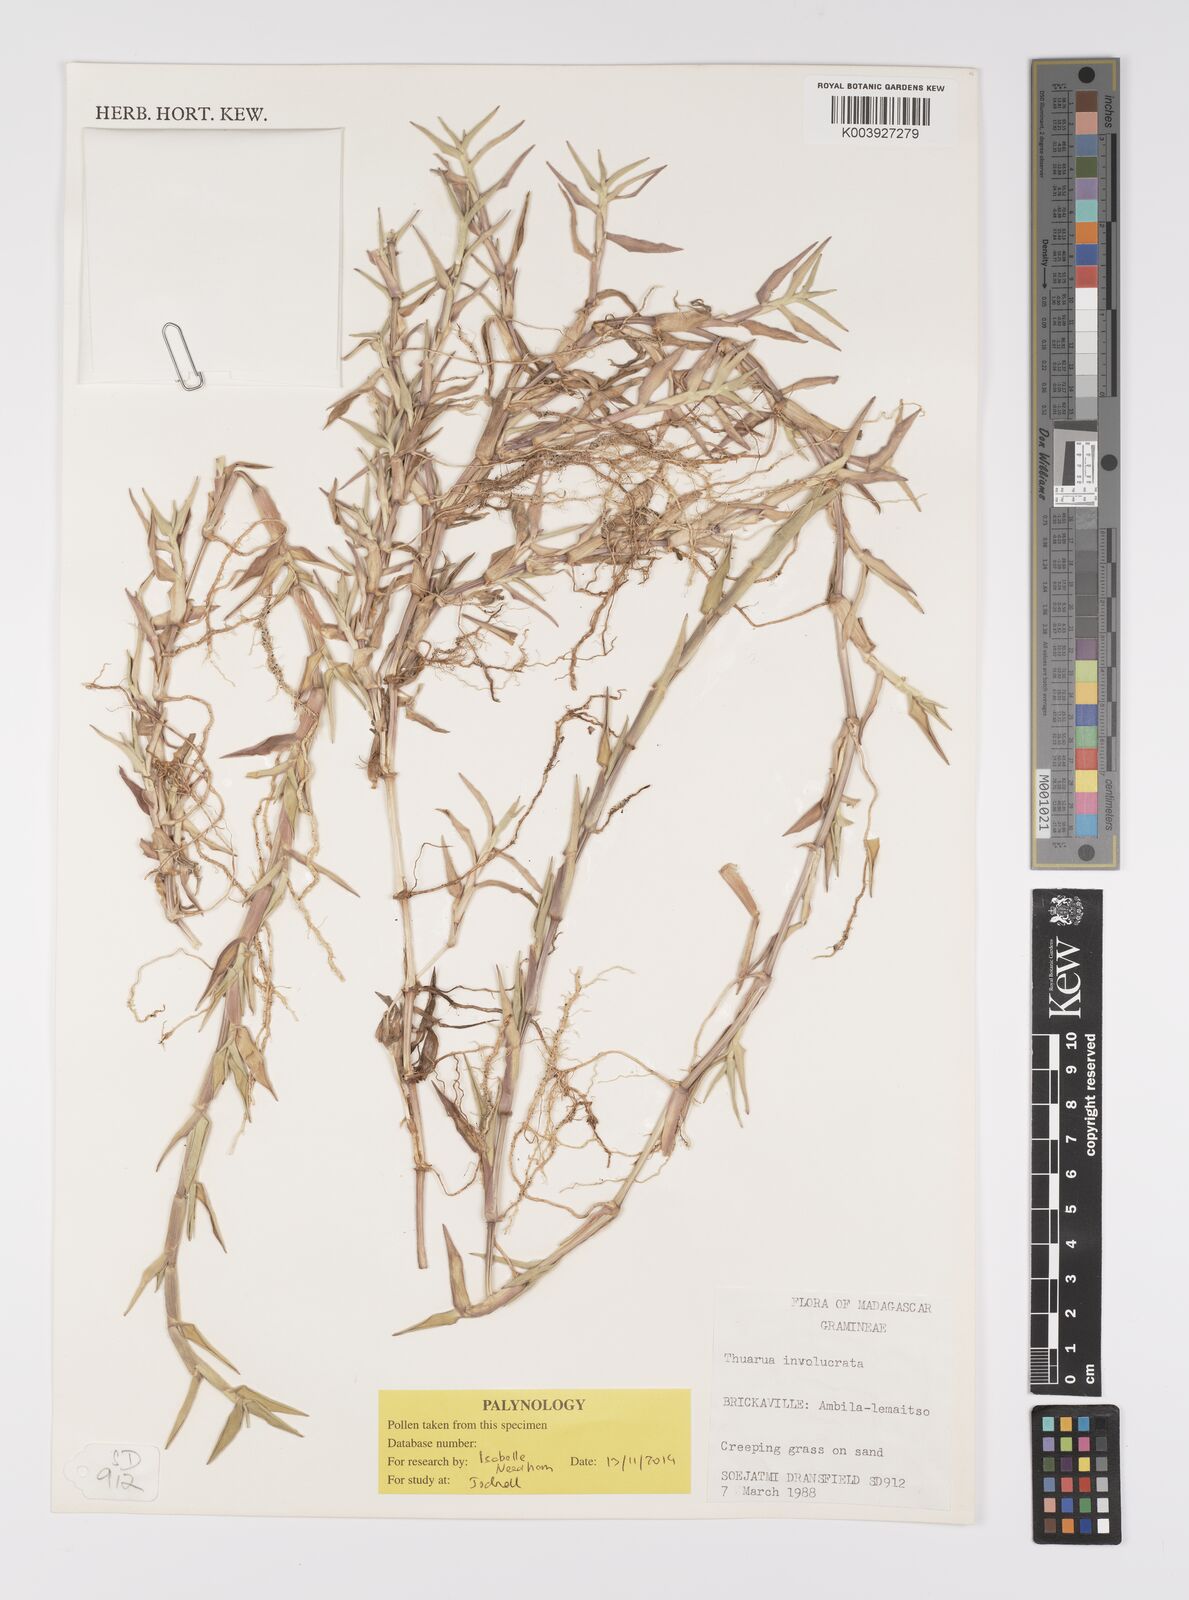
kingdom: Plantae
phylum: Tracheophyta
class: Liliopsida
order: Poales
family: Poaceae
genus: Thuarea
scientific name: Thuarea involuta
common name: Tropical beach grass
